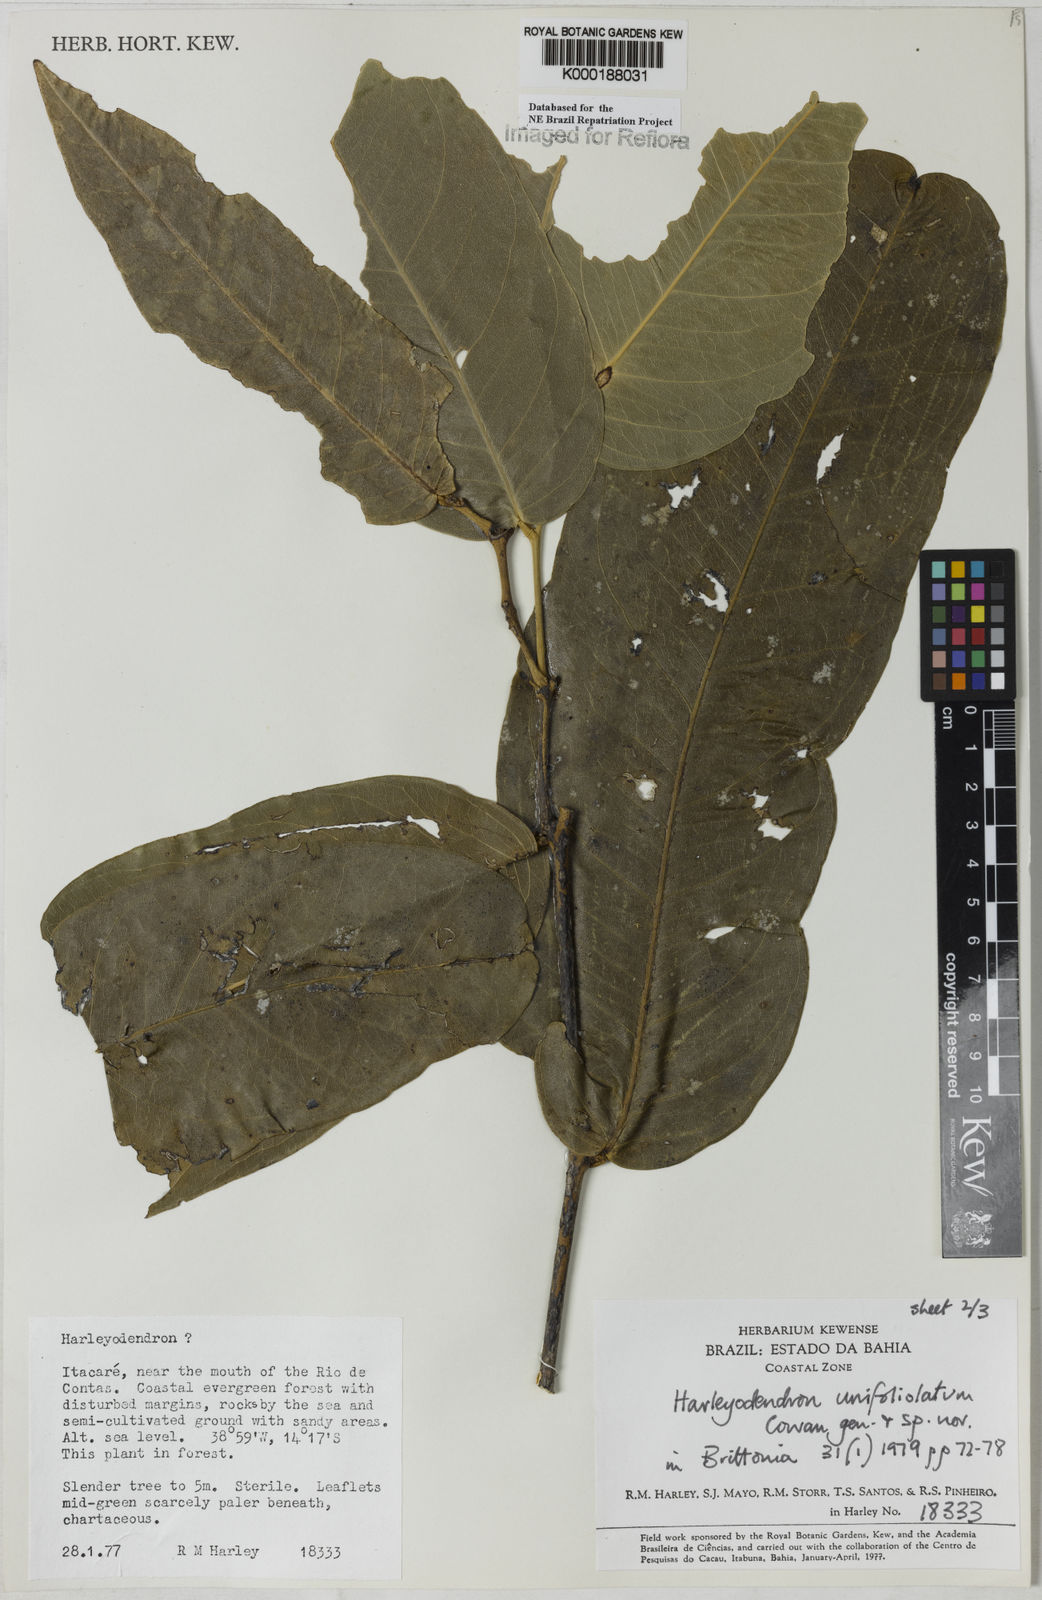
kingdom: Plantae
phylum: Tracheophyta
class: Magnoliopsida
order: Fabales
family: Fabaceae
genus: Harleyodendron
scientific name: Harleyodendron unifoliolatum
